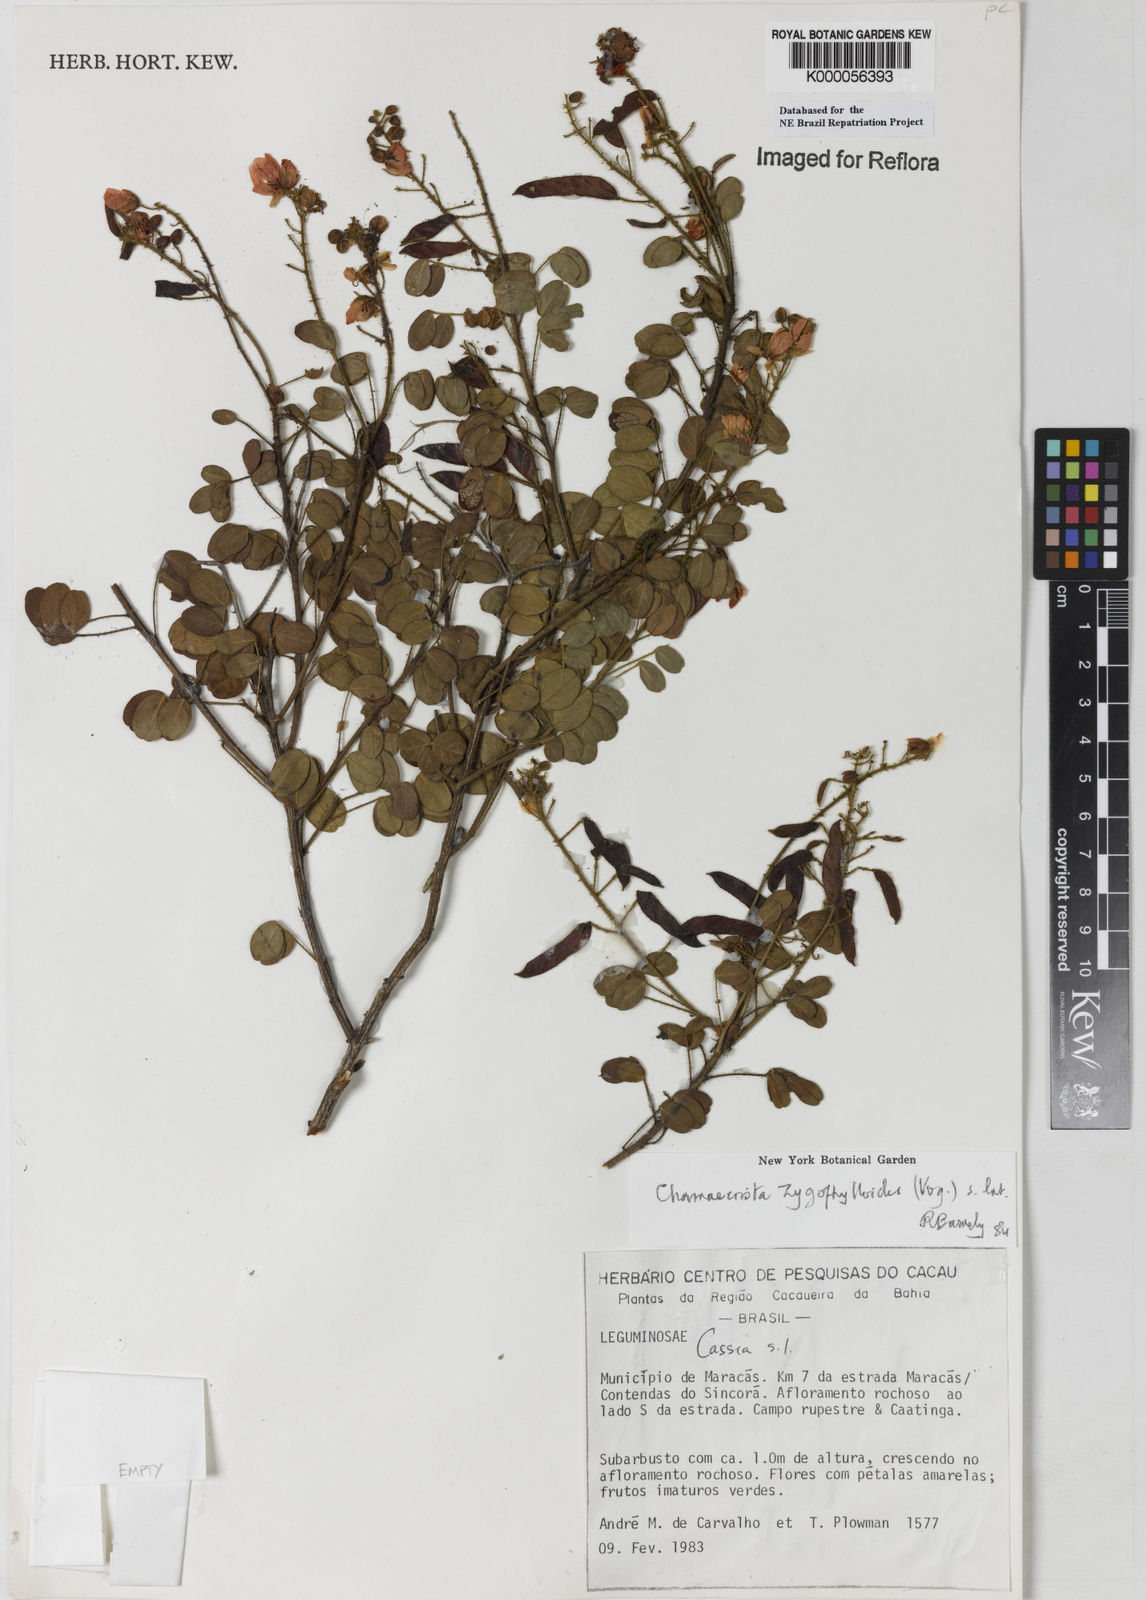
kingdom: Plantae
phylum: Tracheophyta
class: Magnoliopsida
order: Fabales
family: Fabaceae
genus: Chamaecrista
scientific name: Chamaecrista zygophylloides
